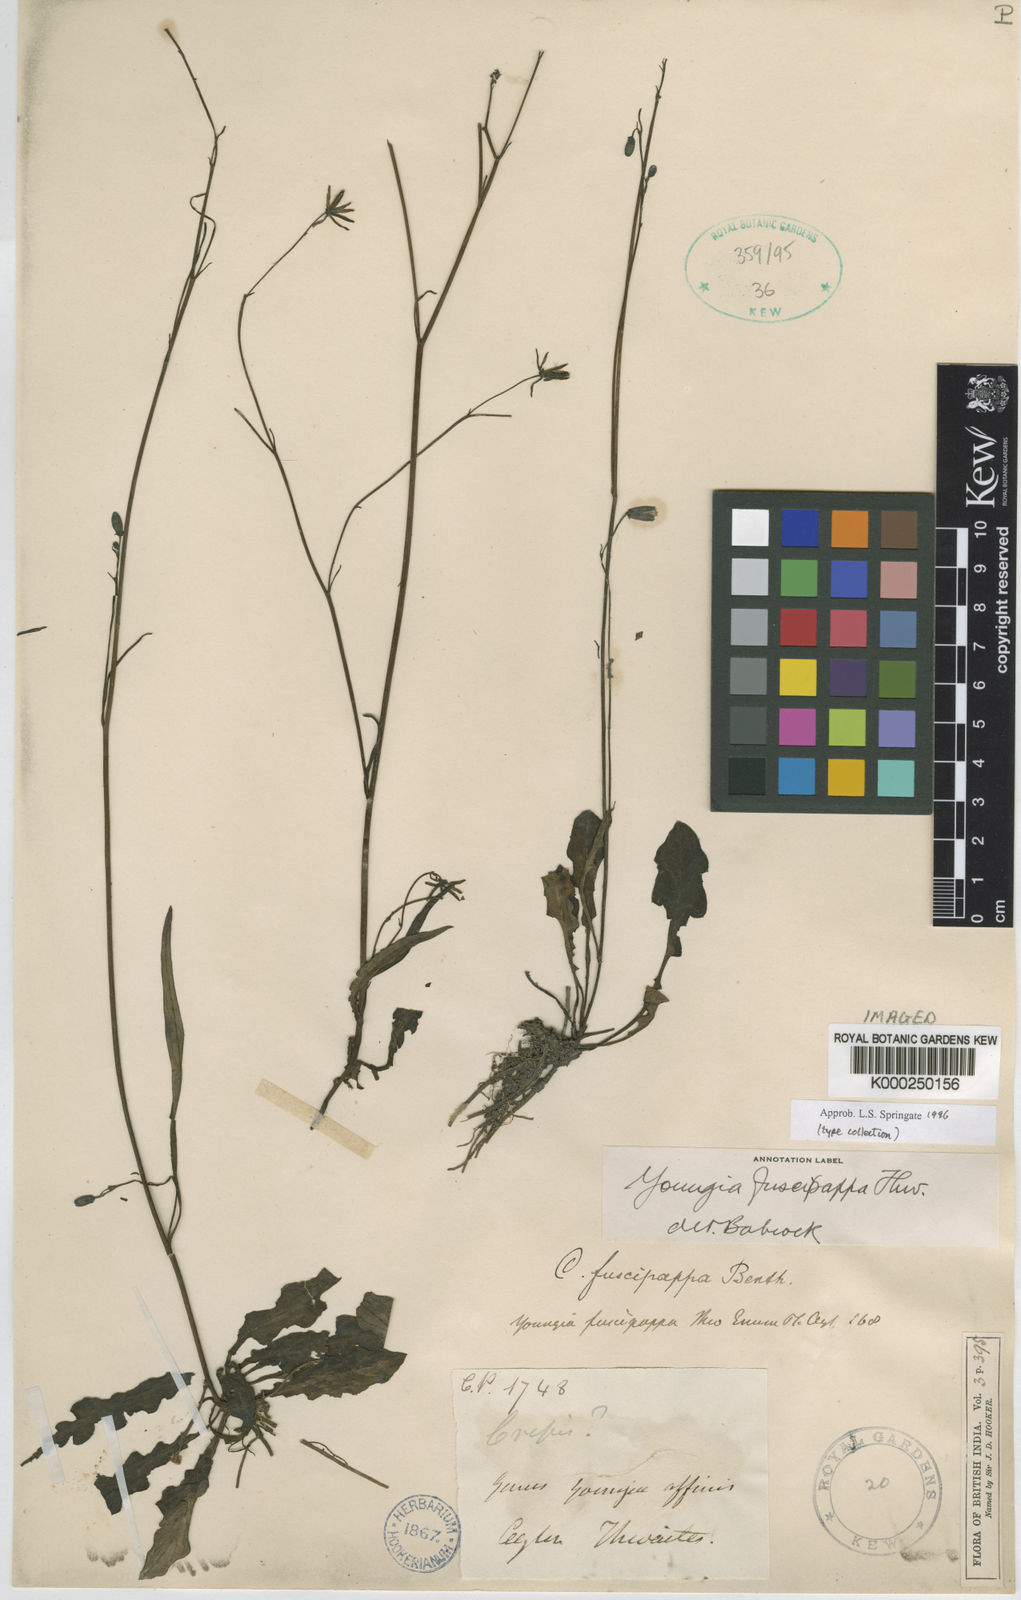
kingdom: Plantae
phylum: Tracheophyta
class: Magnoliopsida
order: Asterales
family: Asteraceae
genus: Youngia
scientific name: Youngia fuscipappa
